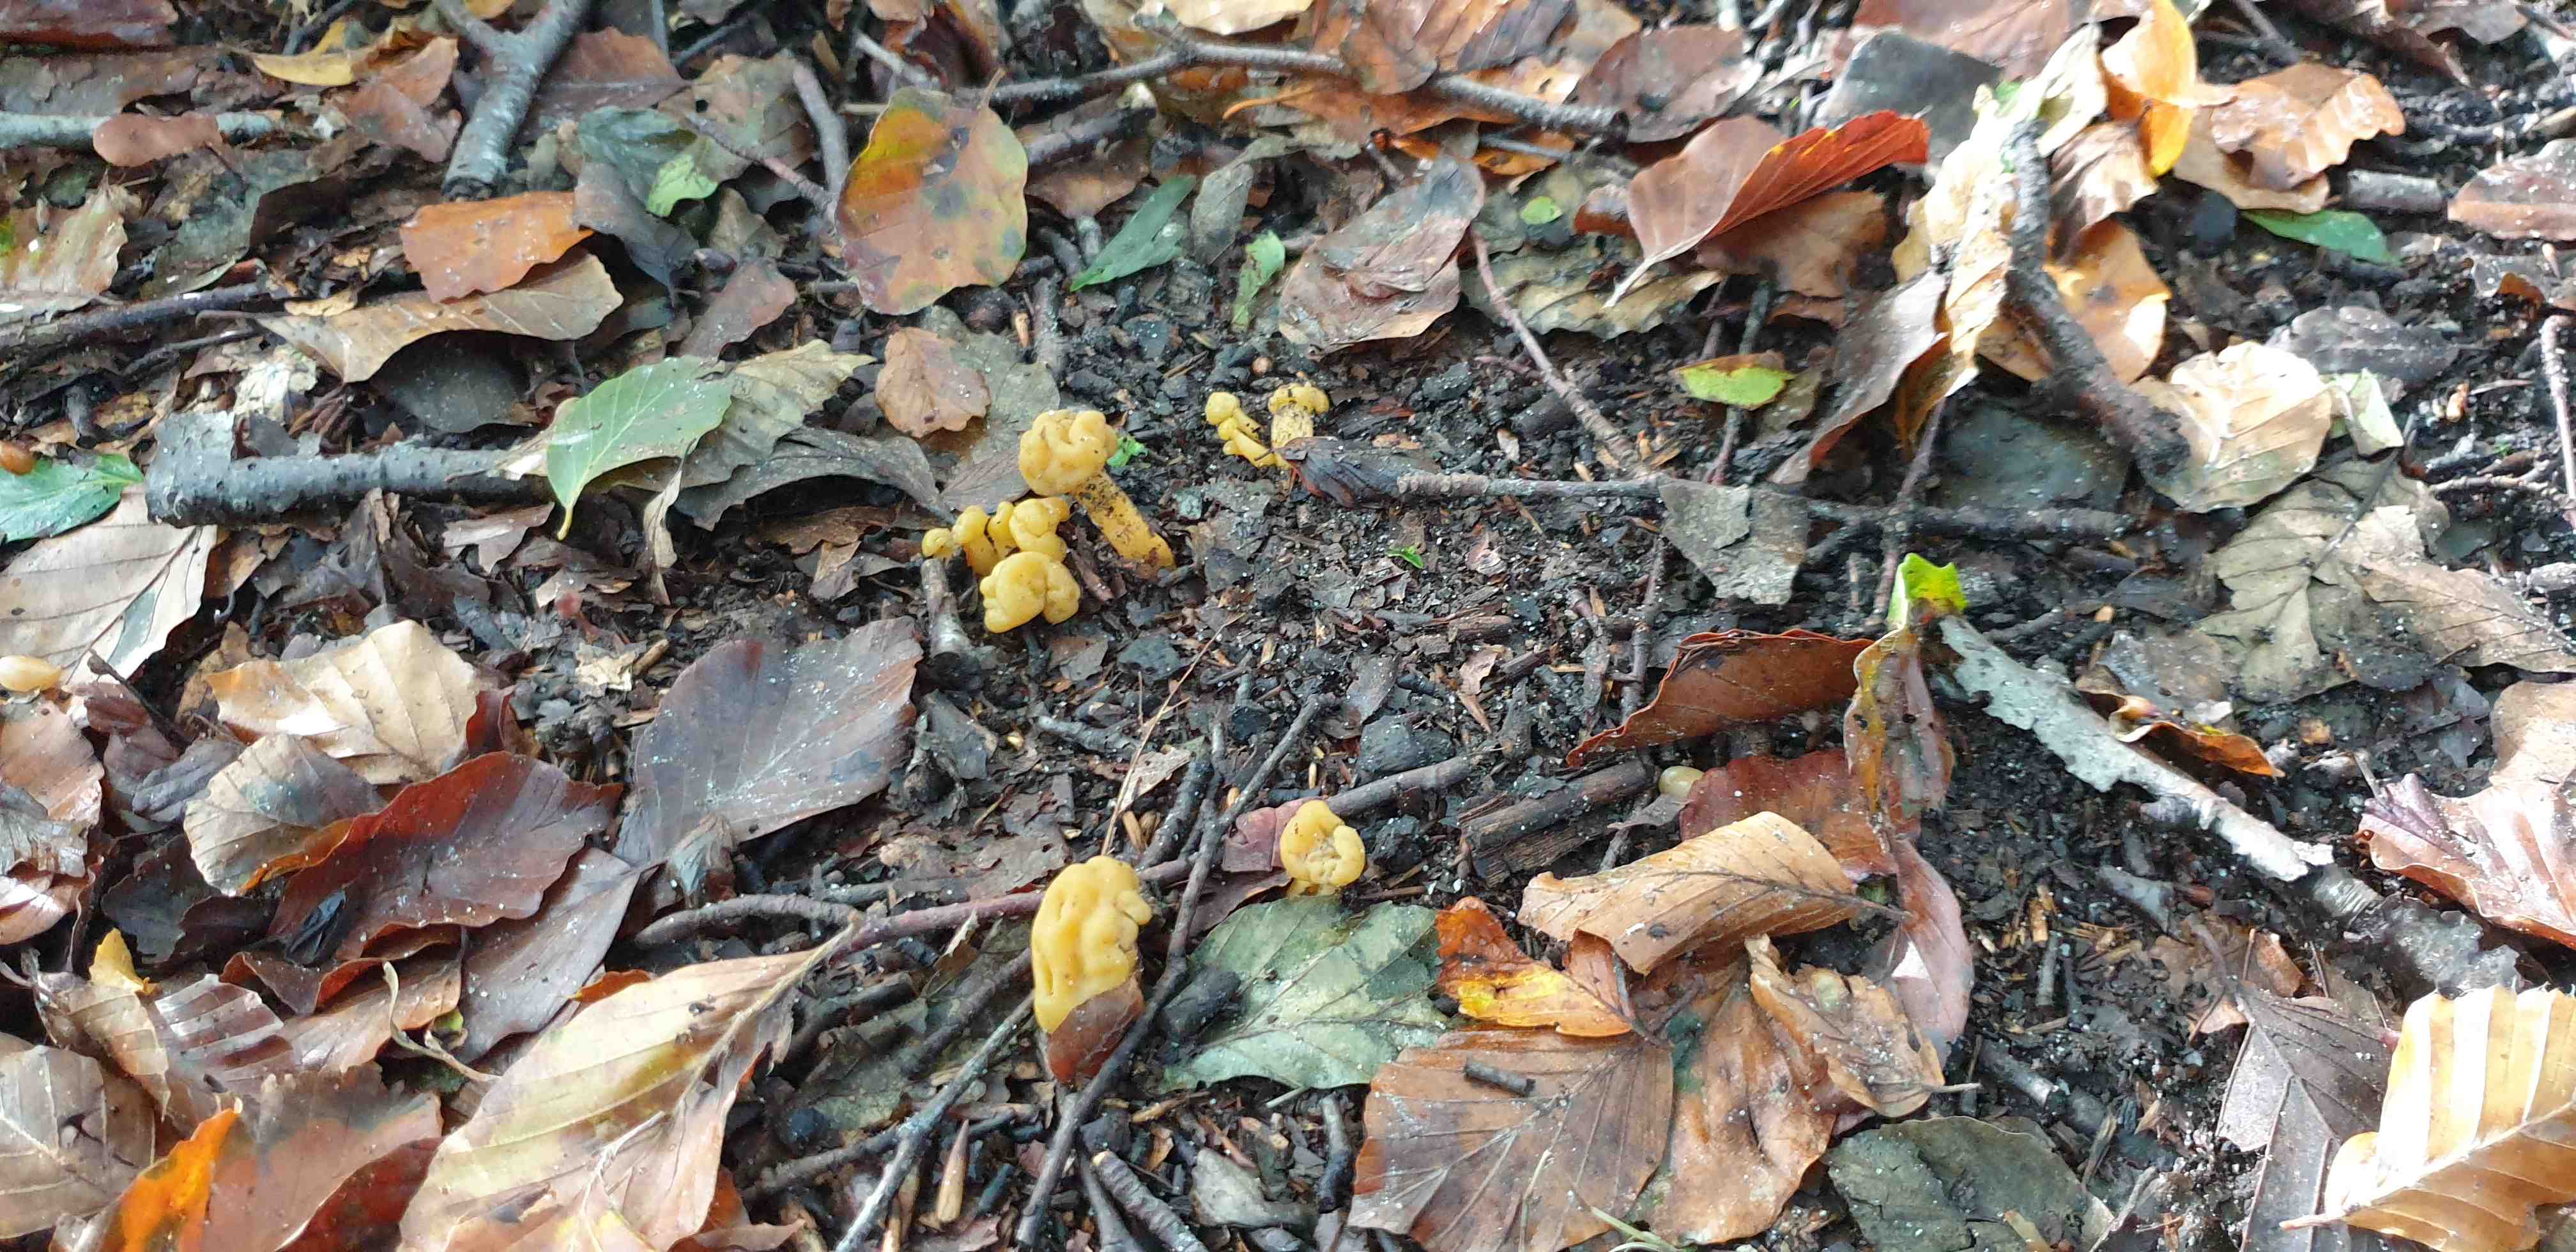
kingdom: Fungi
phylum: Ascomycota
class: Leotiomycetes
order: Leotiales
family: Leotiaceae
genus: Leotia
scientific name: Leotia lubrica
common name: ravsvamp
